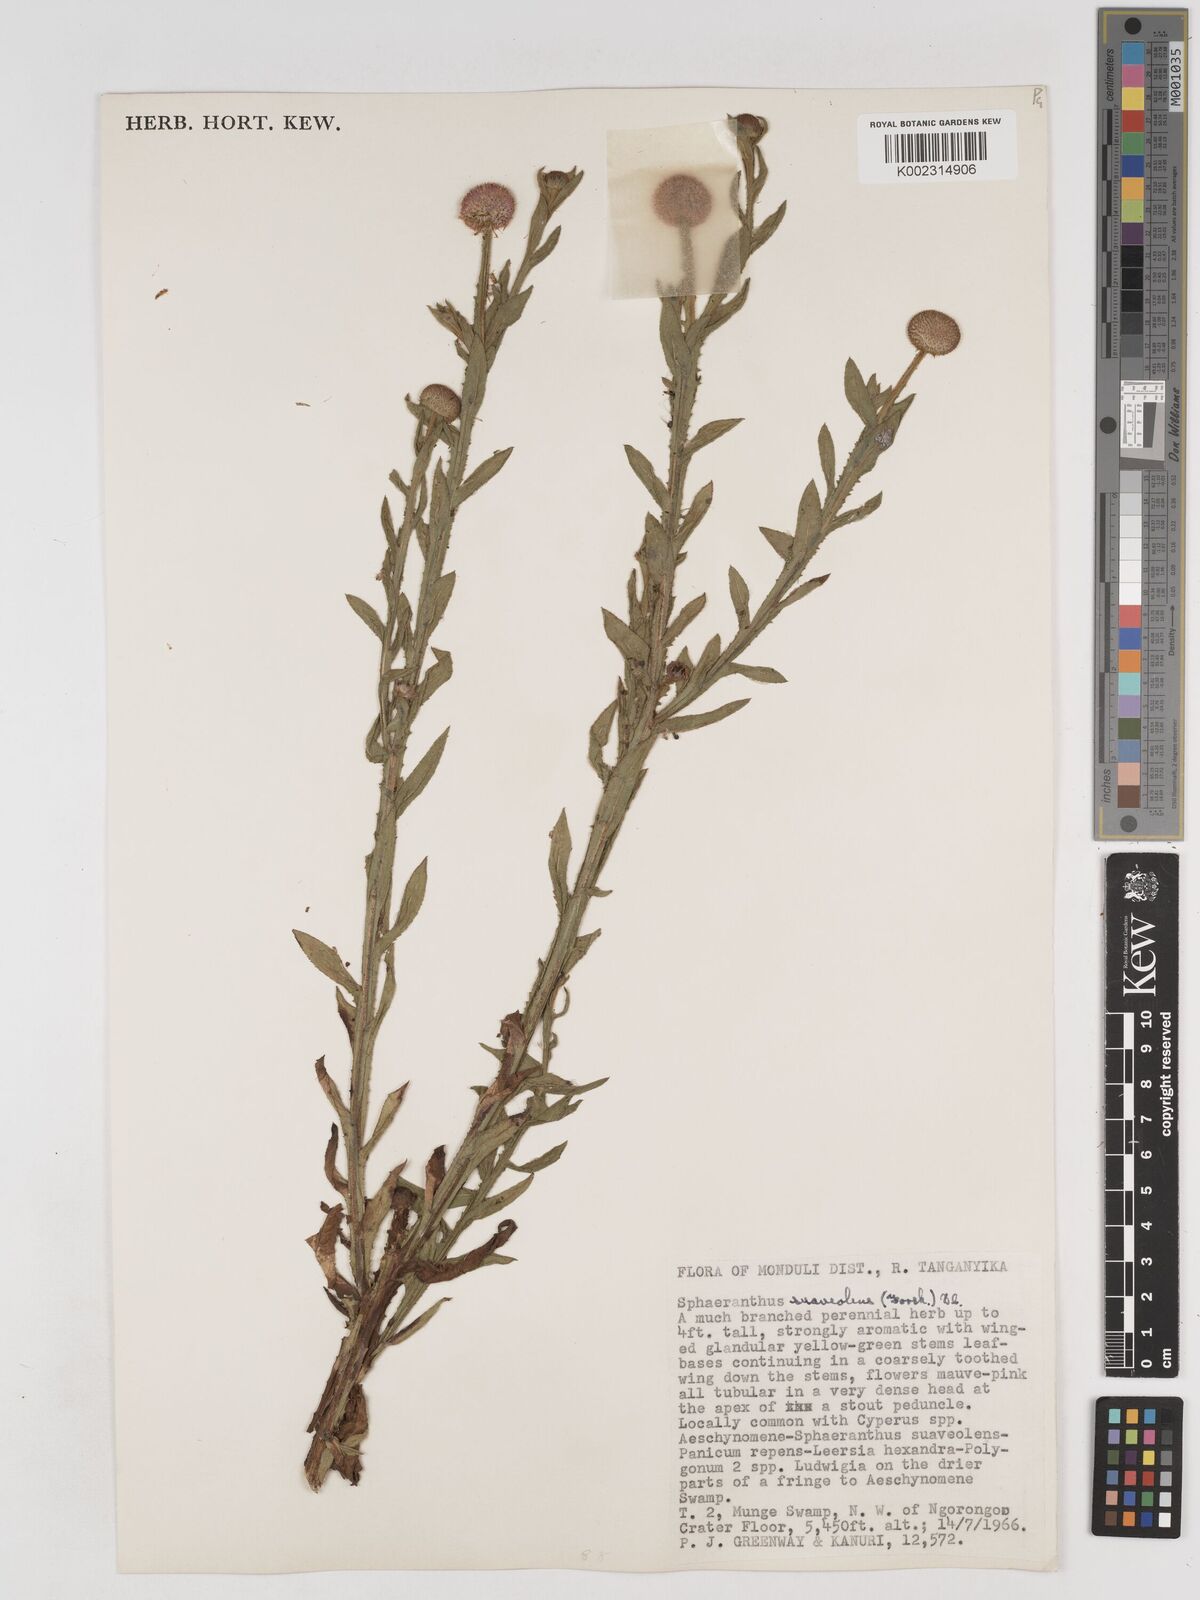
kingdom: Plantae
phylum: Tracheophyta
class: Magnoliopsida
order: Asterales
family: Asteraceae
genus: Sphaeranthus
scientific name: Sphaeranthus suaveolens
